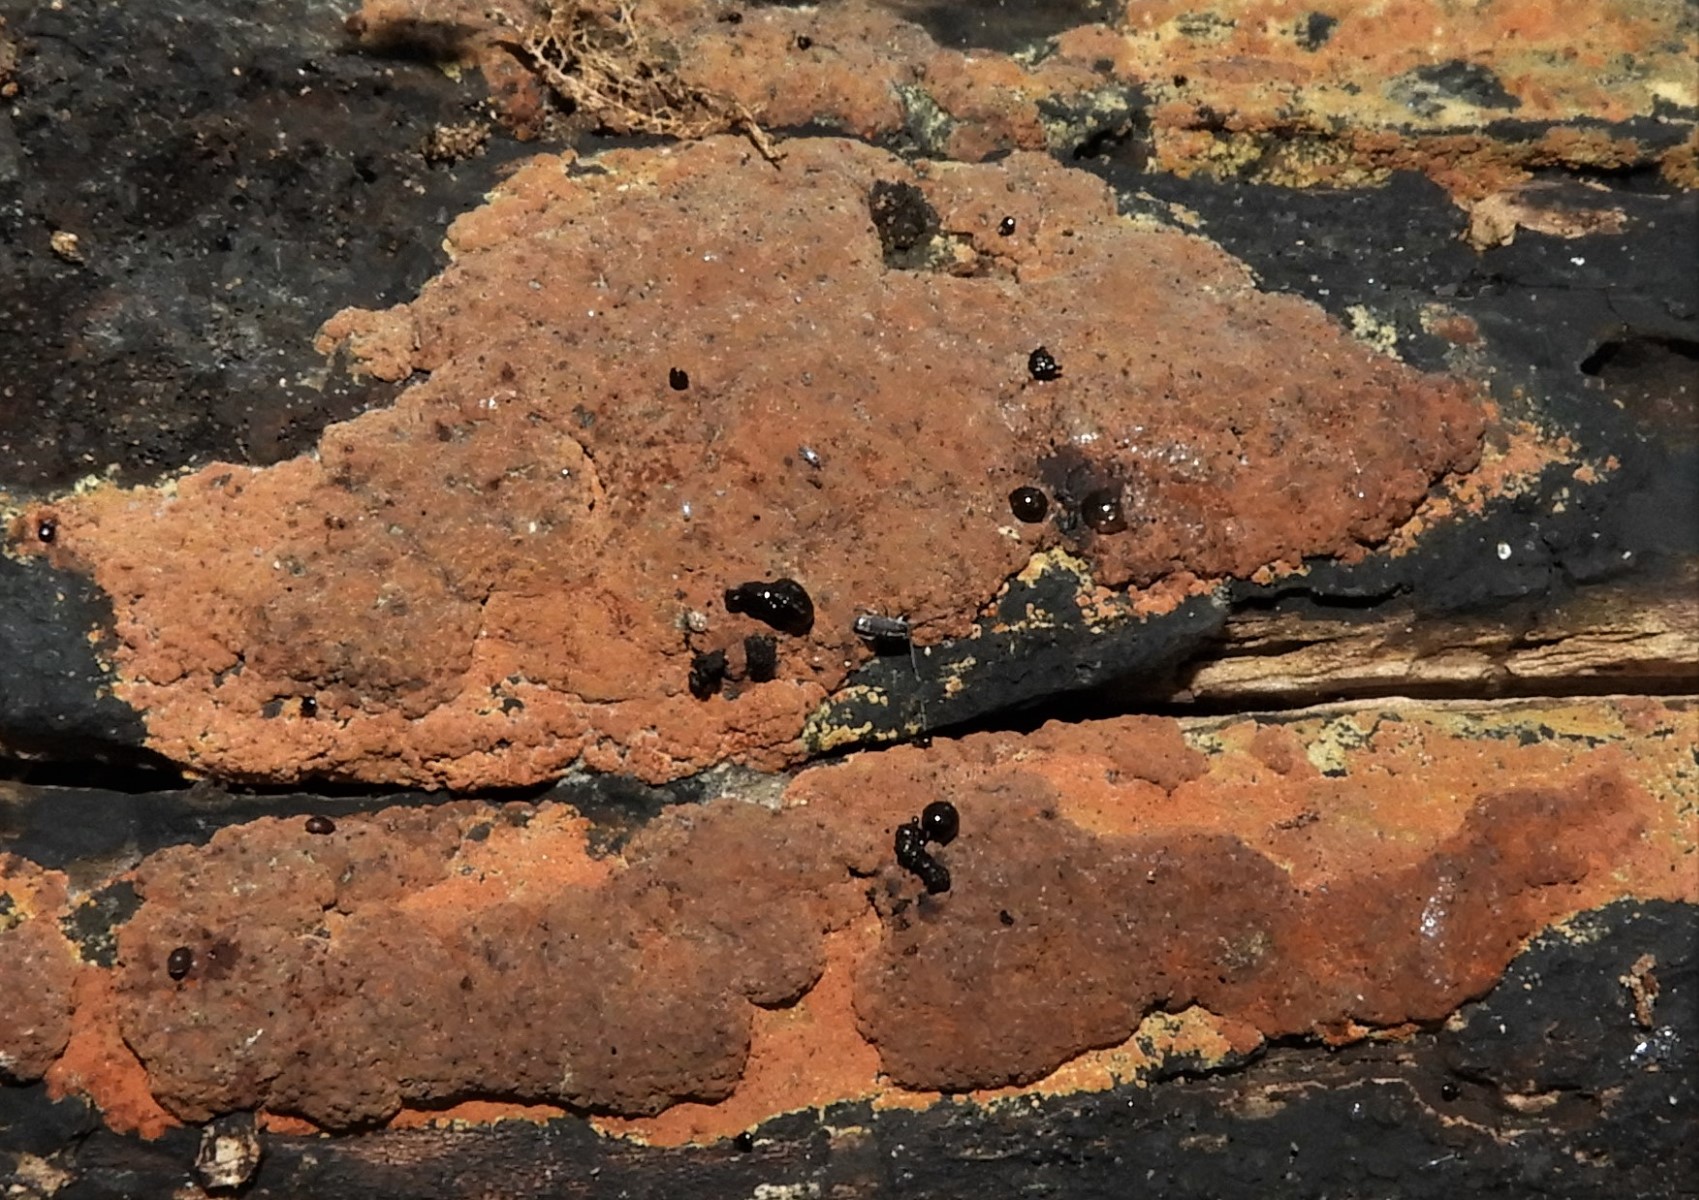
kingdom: Fungi
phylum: Ascomycota
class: Sordariomycetes
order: Xylariales
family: Hypoxylaceae
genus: Hypoxylon
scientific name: Hypoxylon rubiginosum
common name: rustfarvet kulbær
